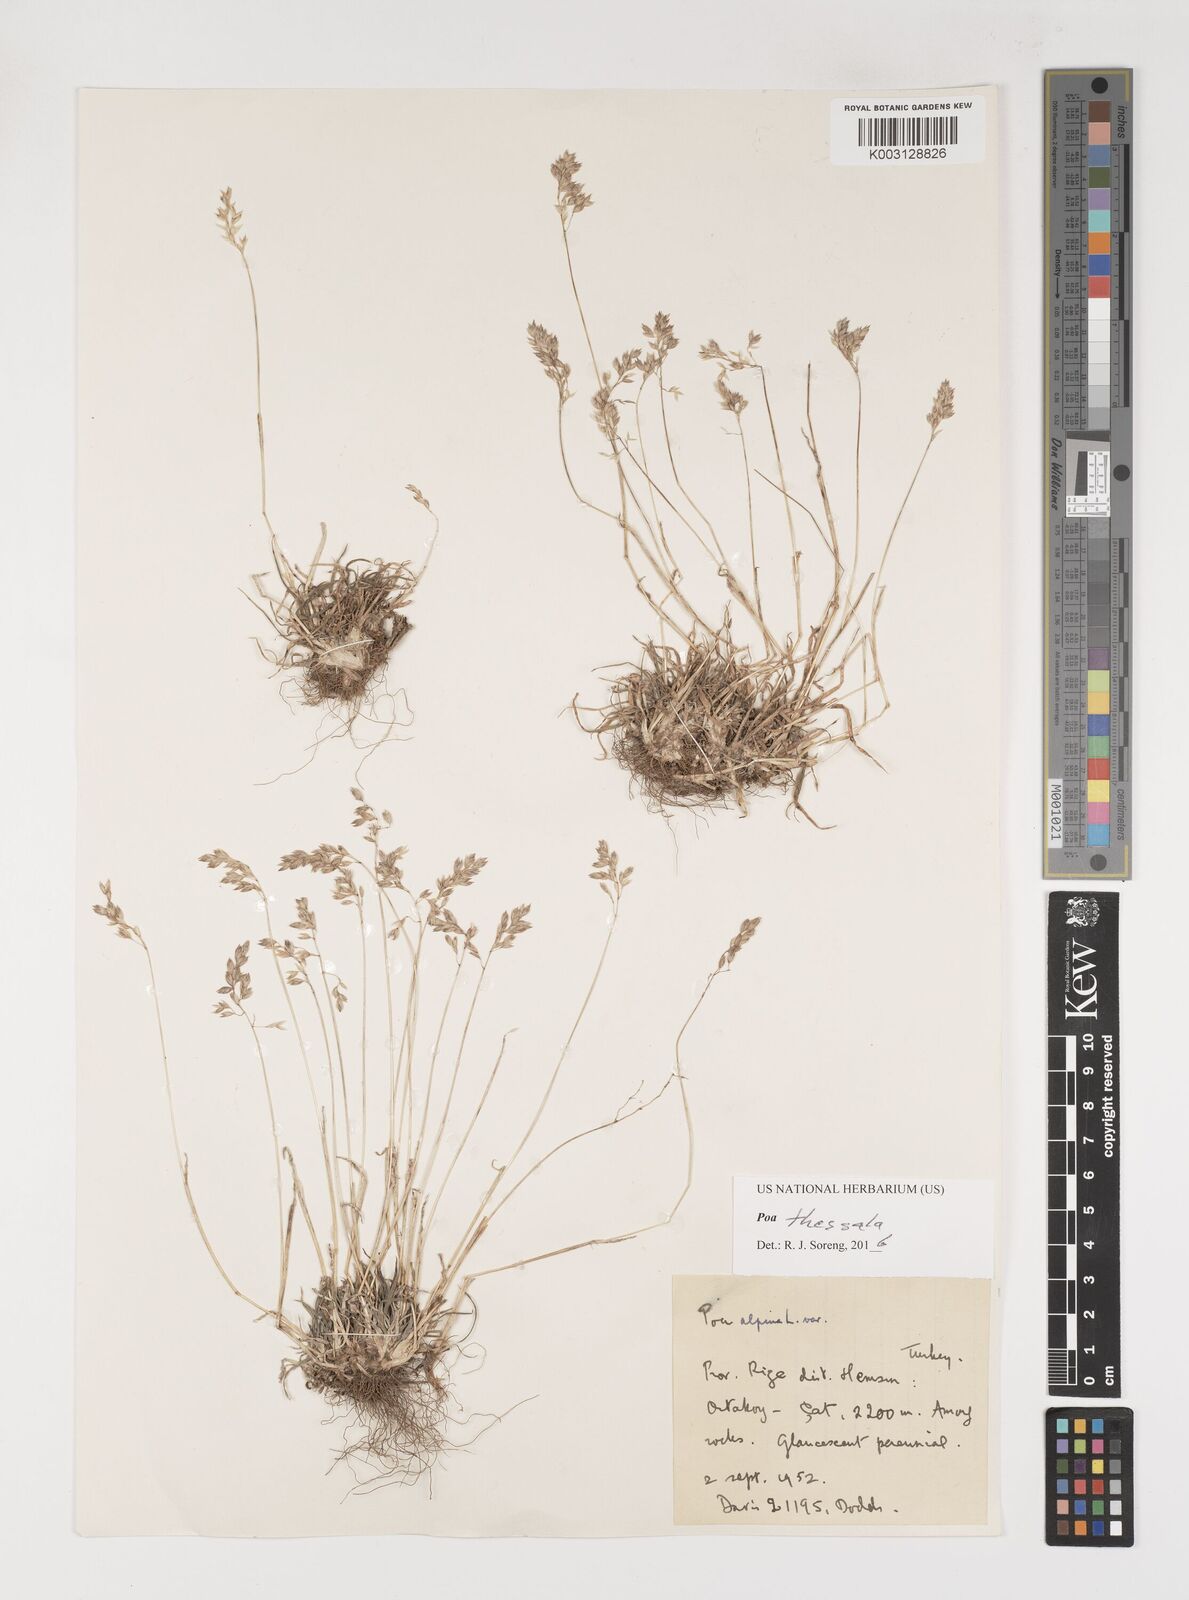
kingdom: Plantae
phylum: Tracheophyta
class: Liliopsida
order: Poales
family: Poaceae
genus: Poa
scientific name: Poa thessala
